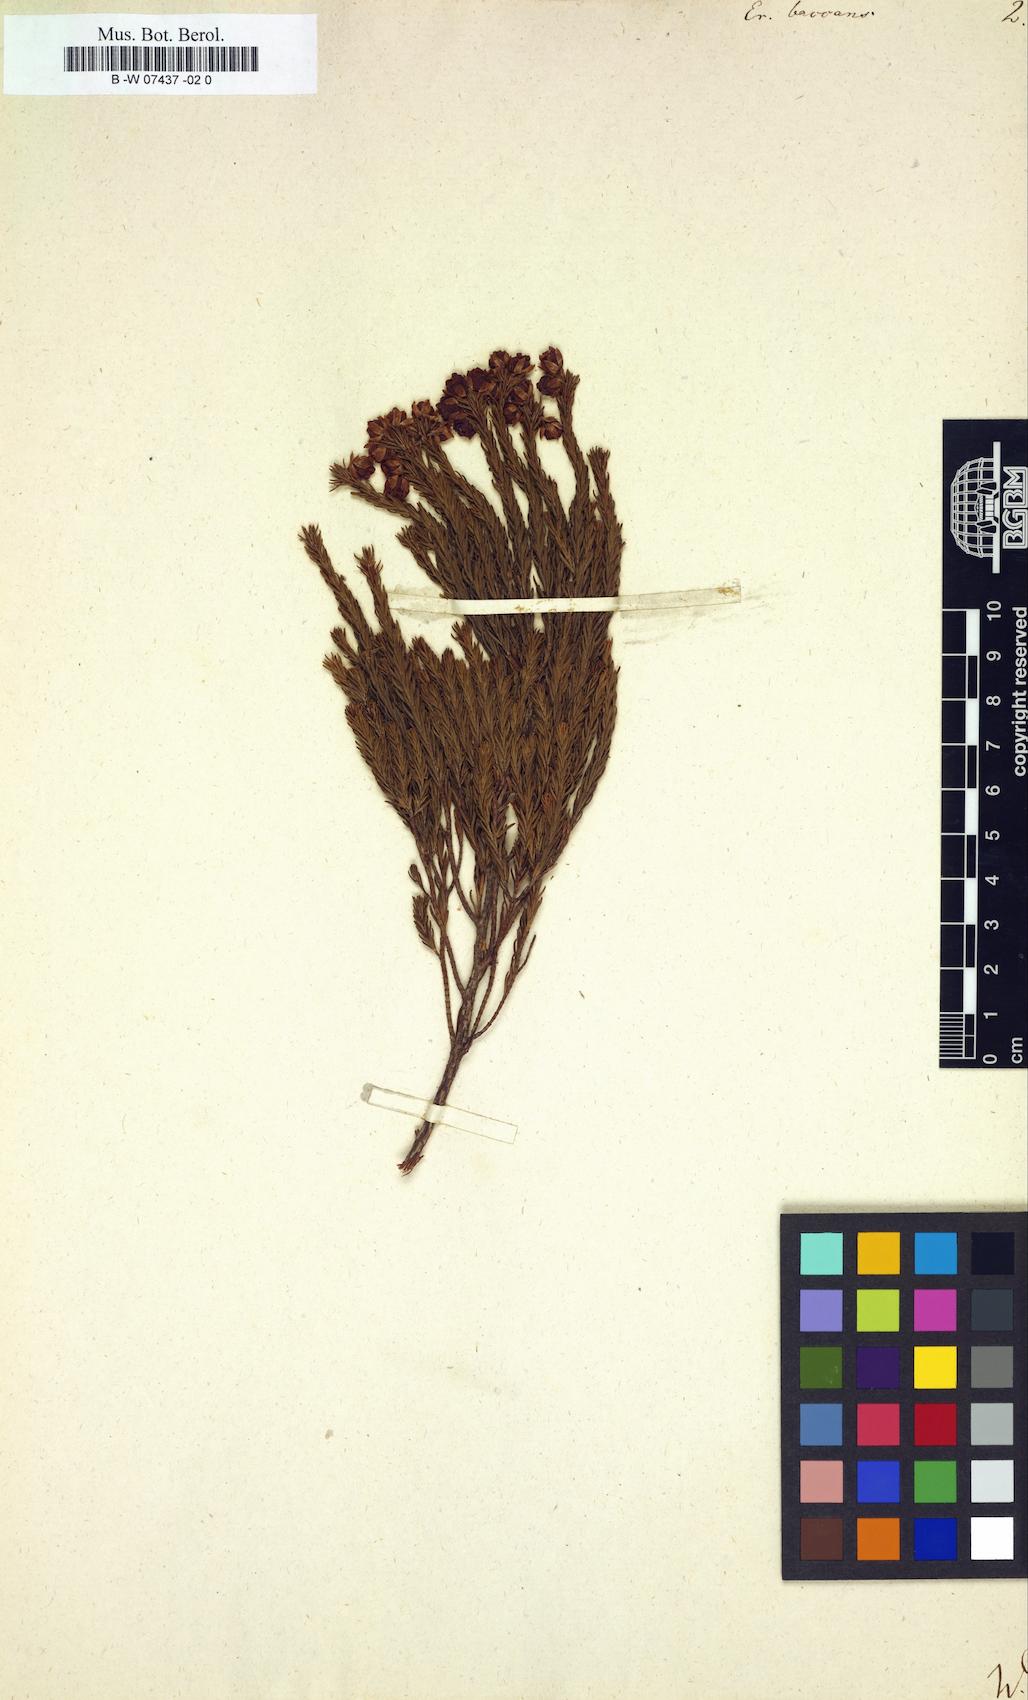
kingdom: Plantae
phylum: Tracheophyta
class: Magnoliopsida
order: Ericales
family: Ericaceae
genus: Erica
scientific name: Erica baccans
